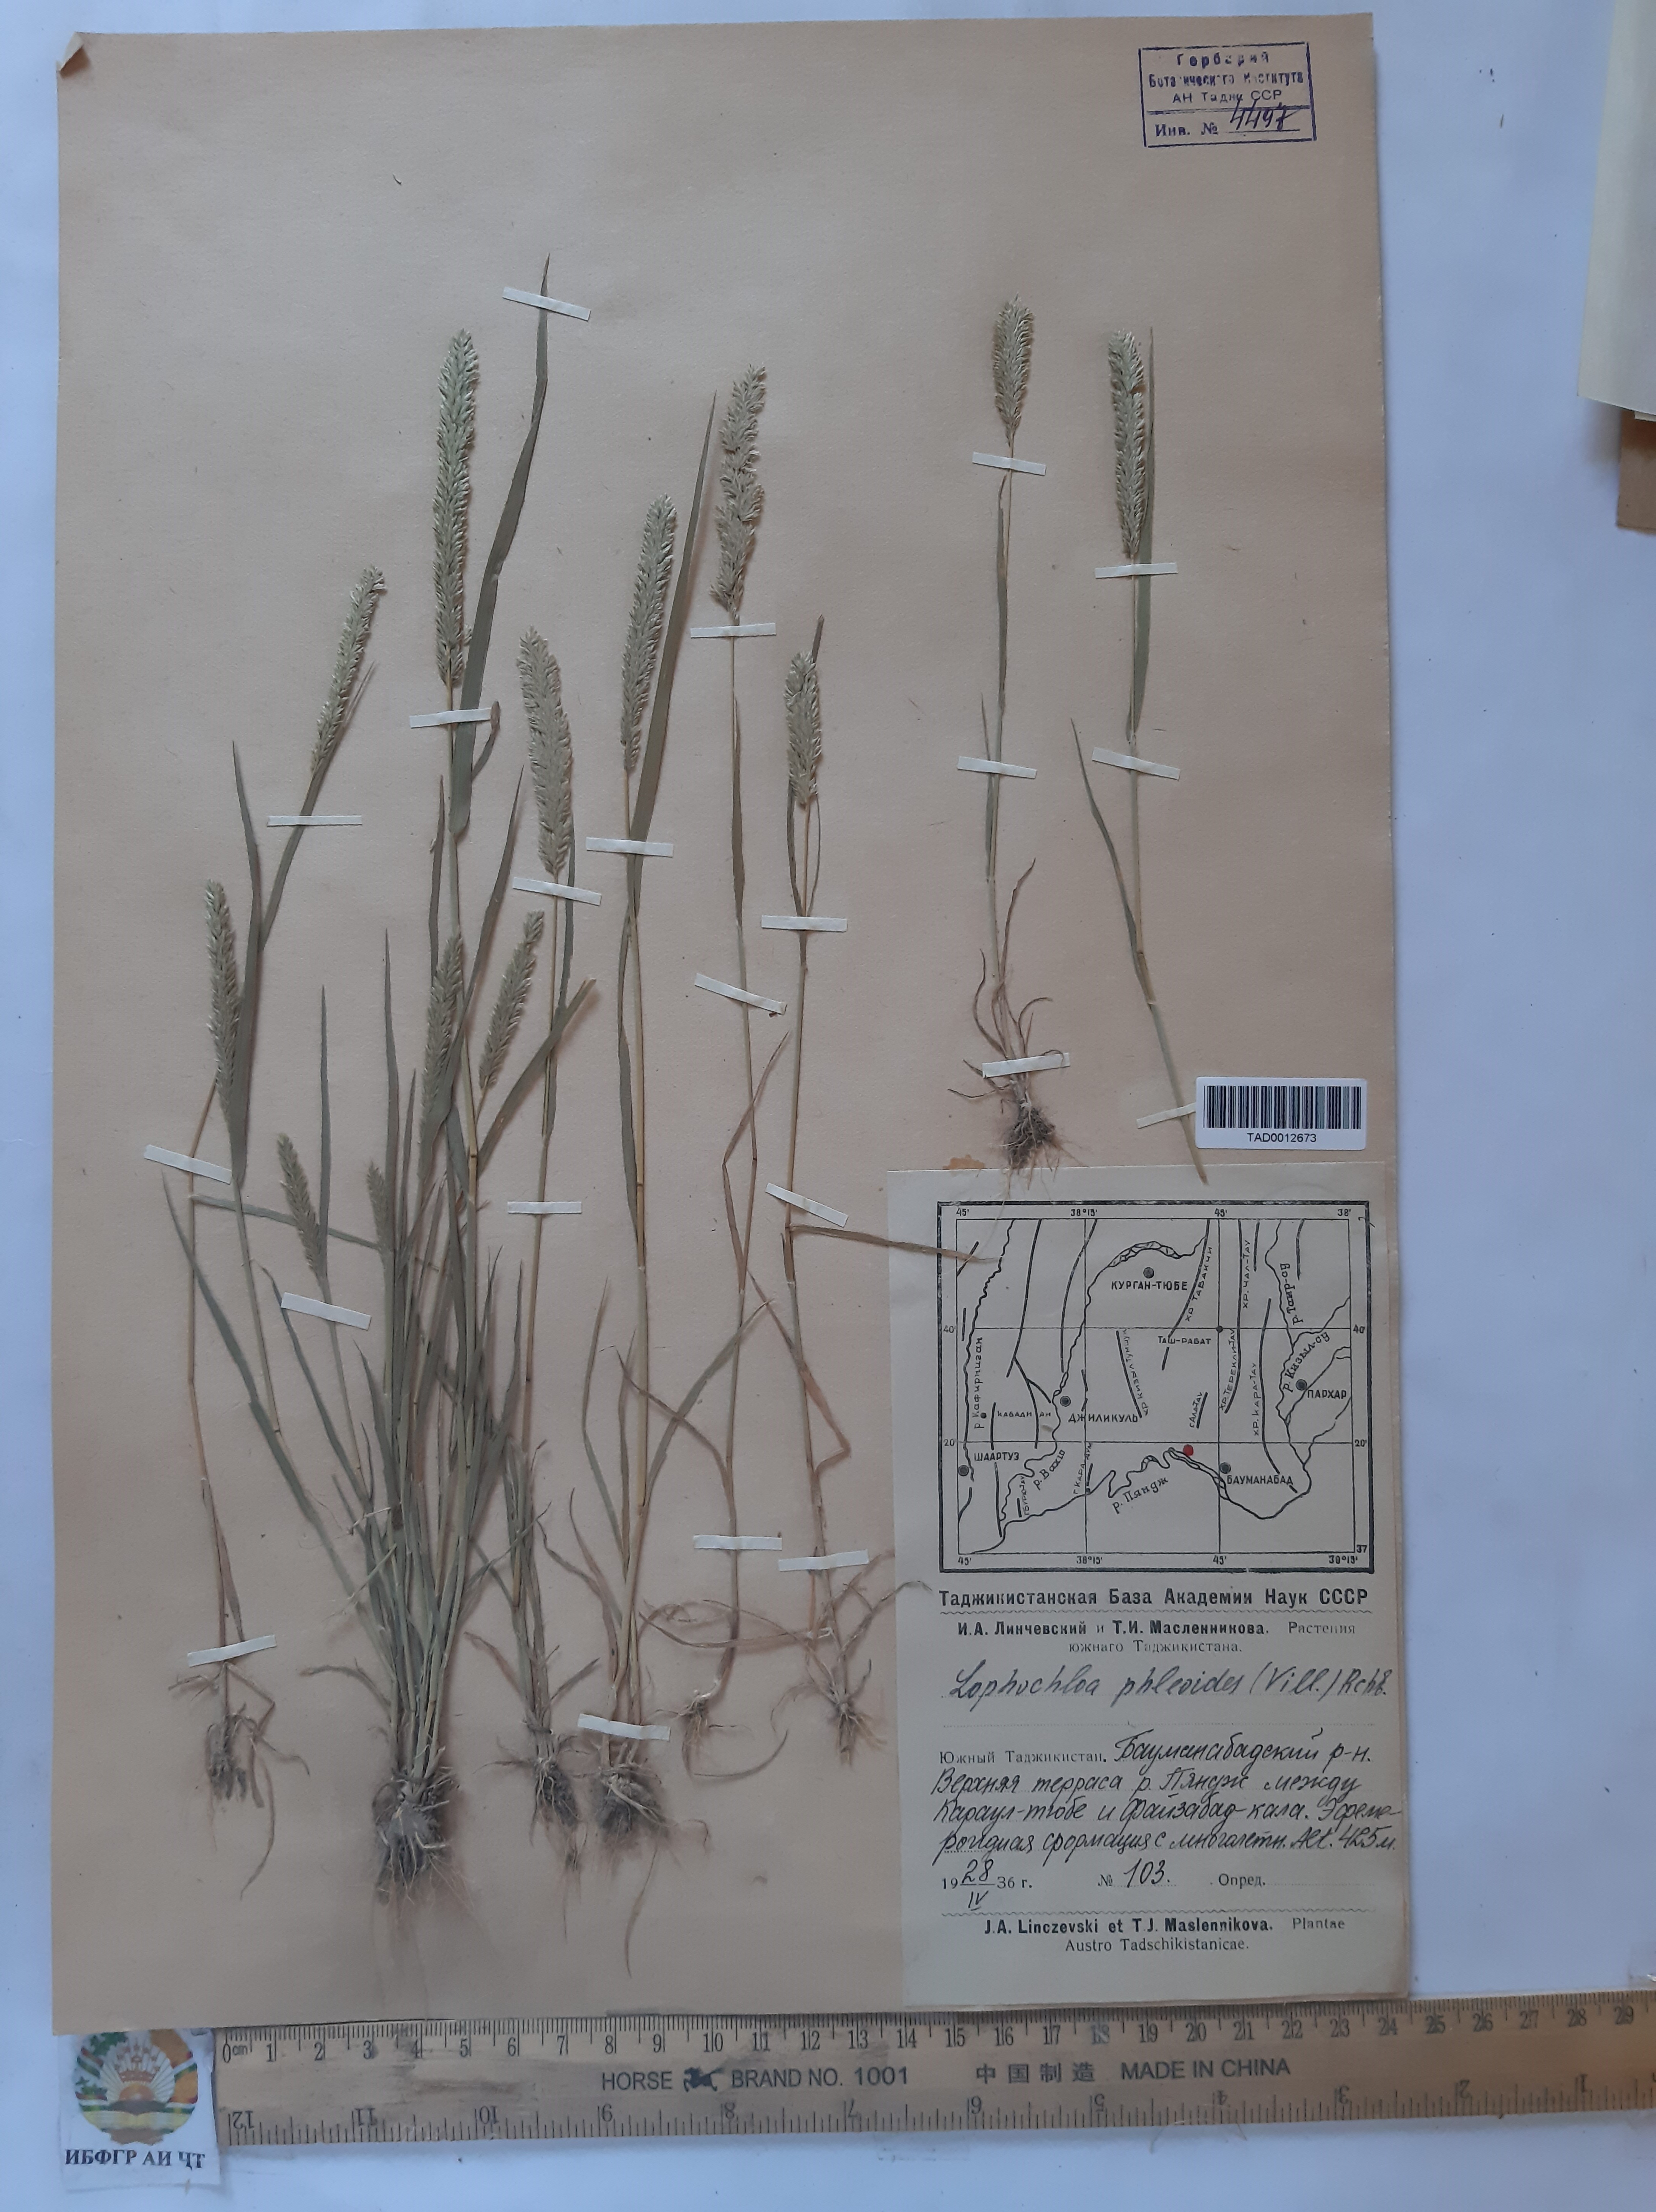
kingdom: Plantae
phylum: Tracheophyta
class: Liliopsida
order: Poales
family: Poaceae
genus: Rostraria
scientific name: Rostraria cristata
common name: Mediterranean hair-grass
